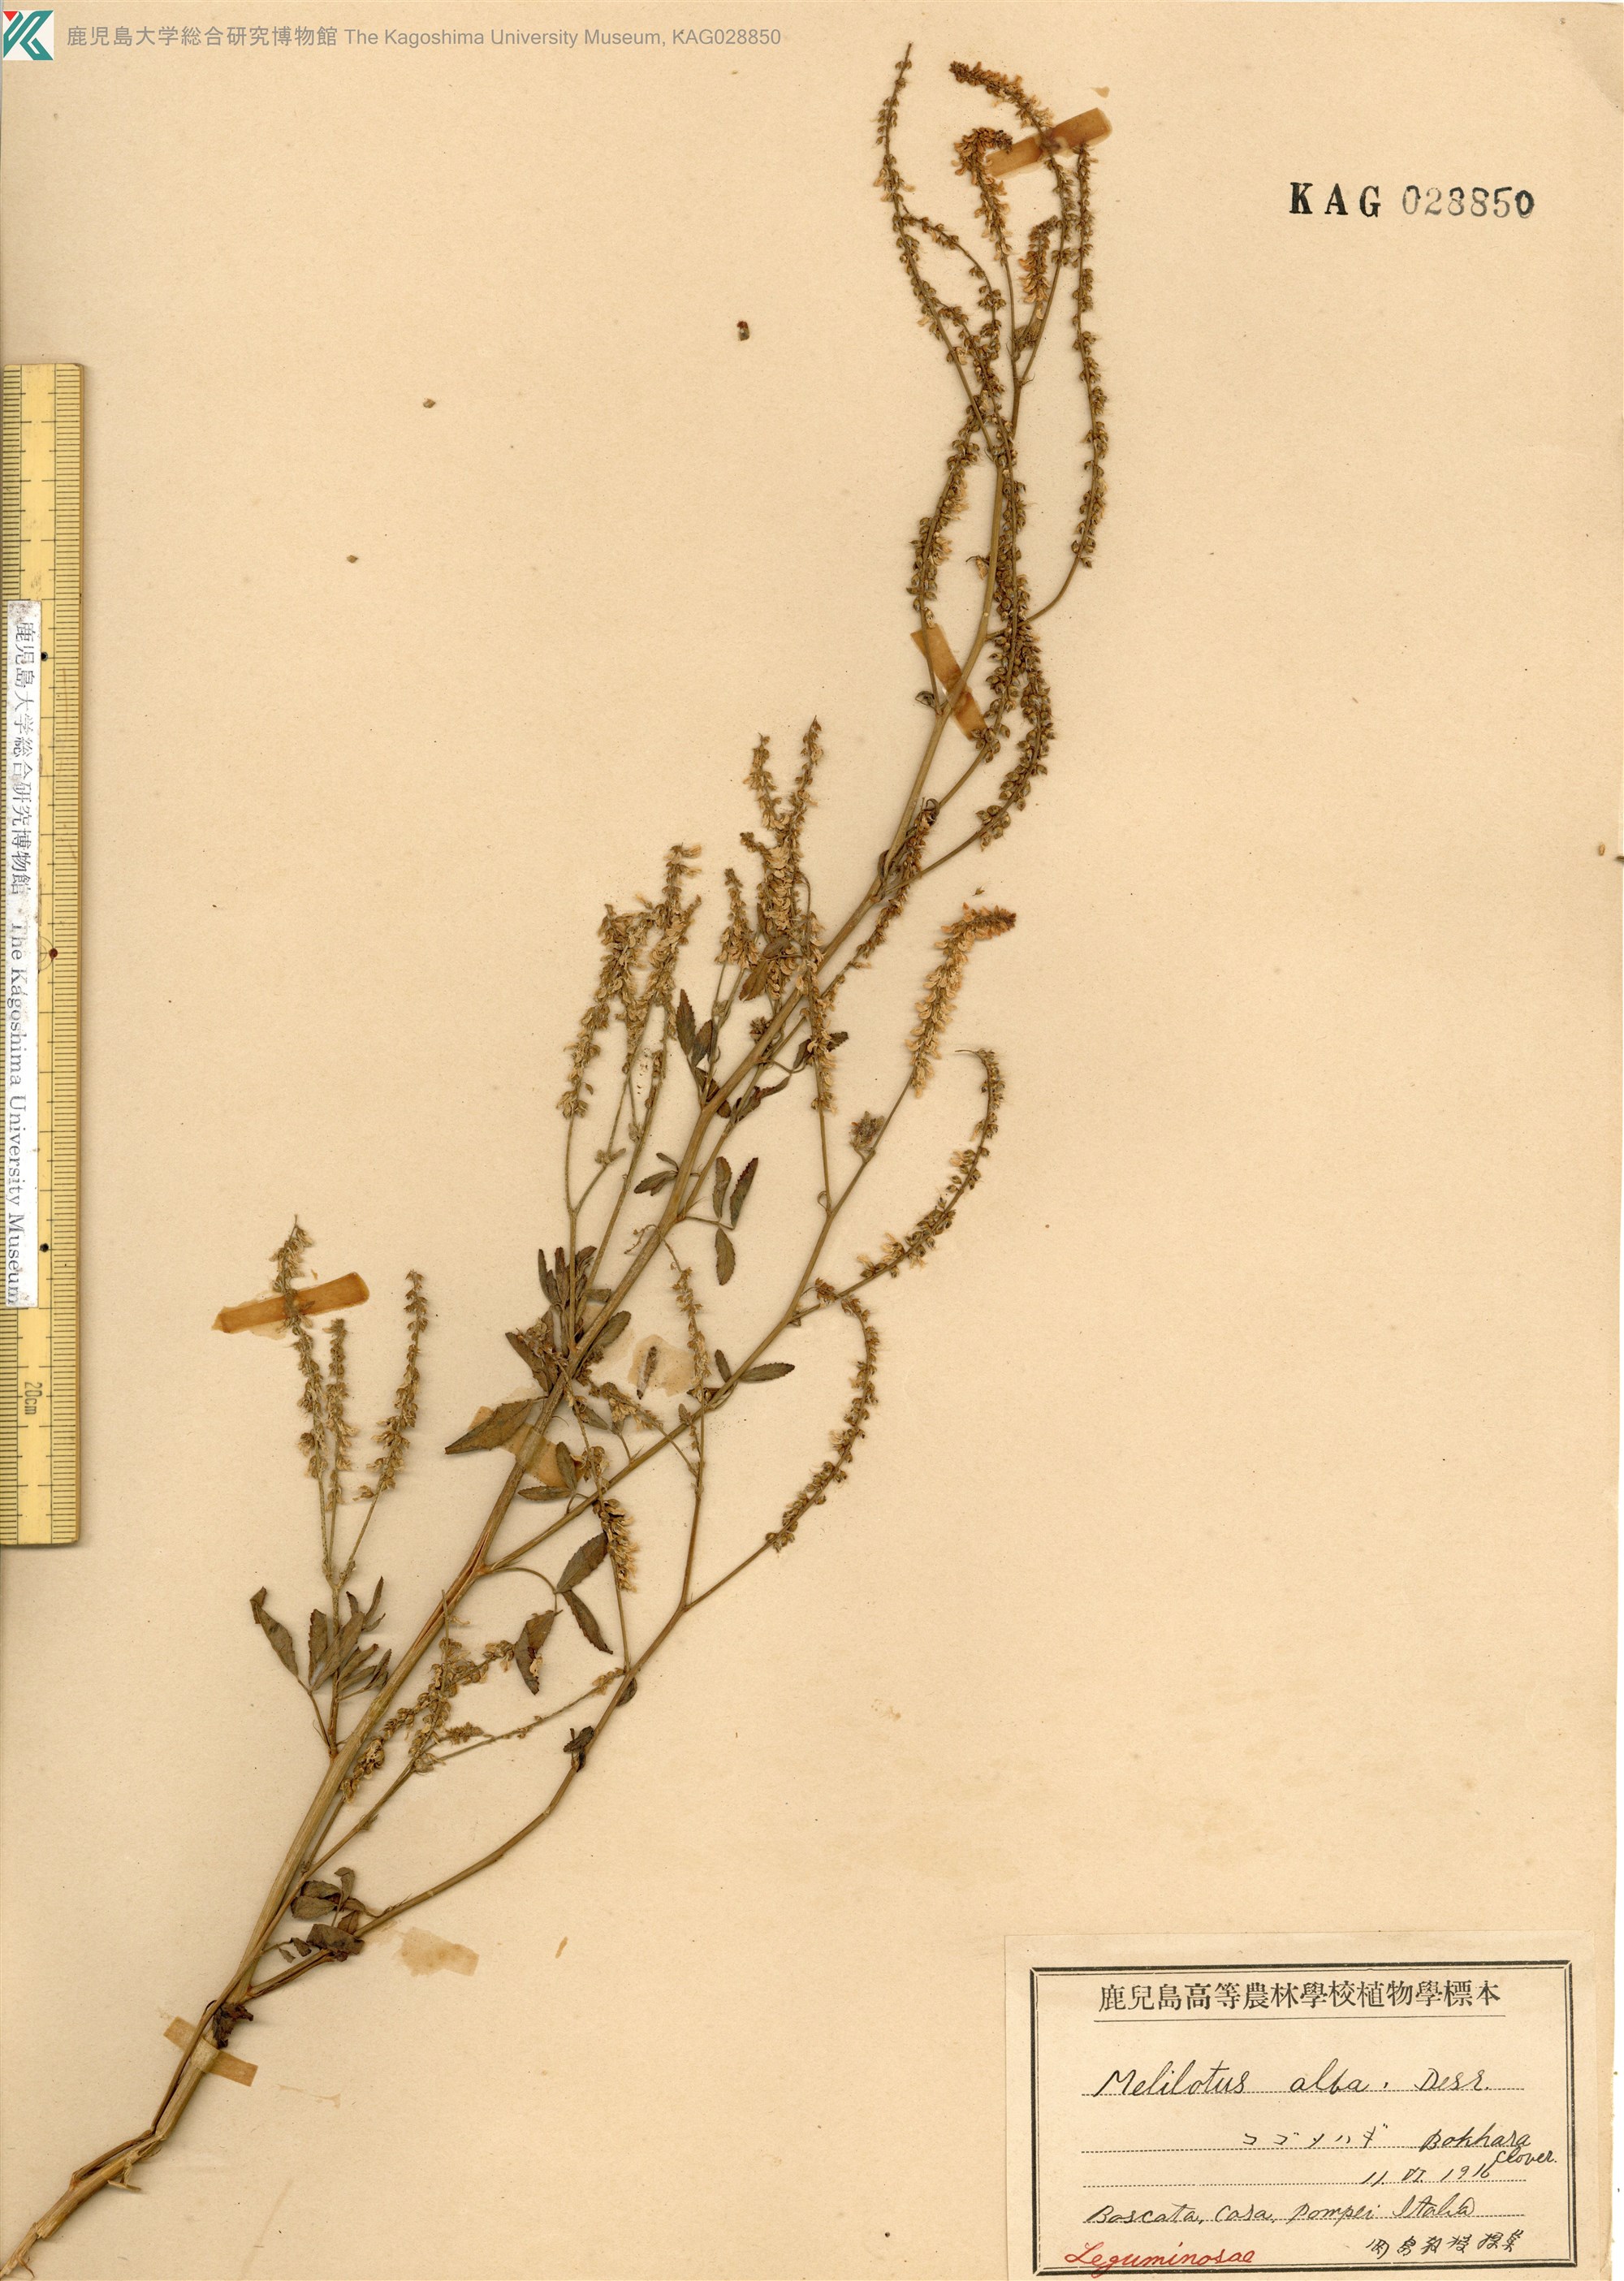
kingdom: Plantae
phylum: Tracheophyta
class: Magnoliopsida
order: Fabales
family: Fabaceae
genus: Melilotus
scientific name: Melilotus suaveolens
